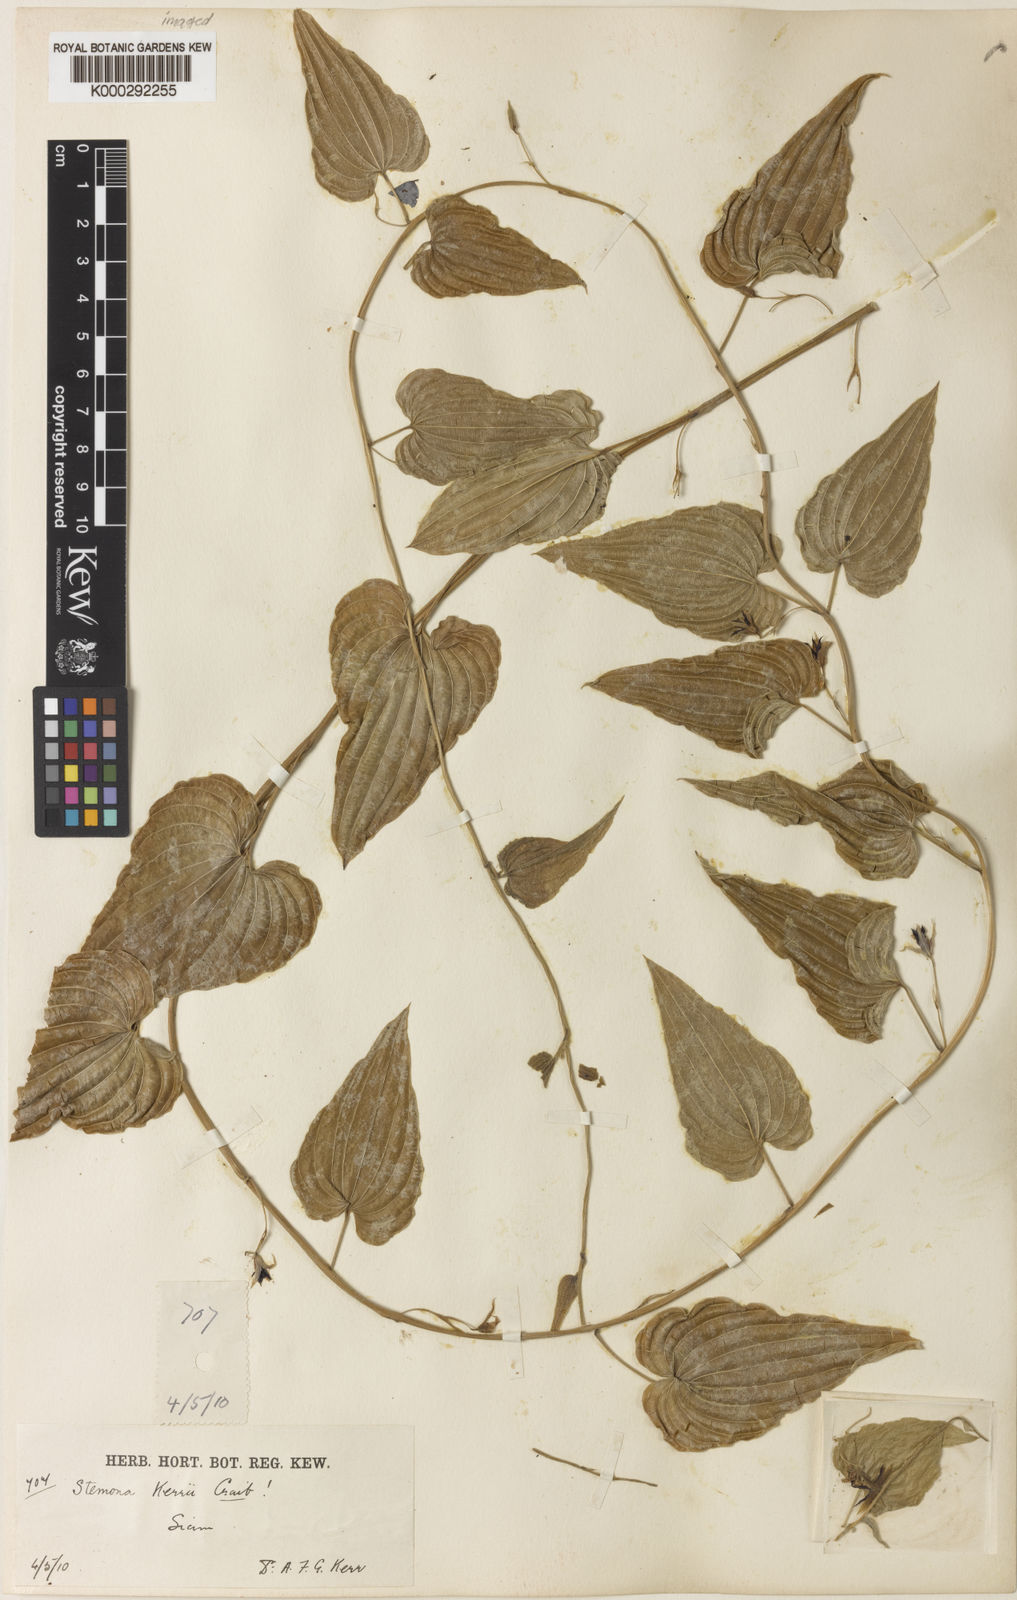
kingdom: Plantae
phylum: Tracheophyta
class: Liliopsida
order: Pandanales
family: Stemonaceae
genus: Stemona
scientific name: Stemona kerrii
